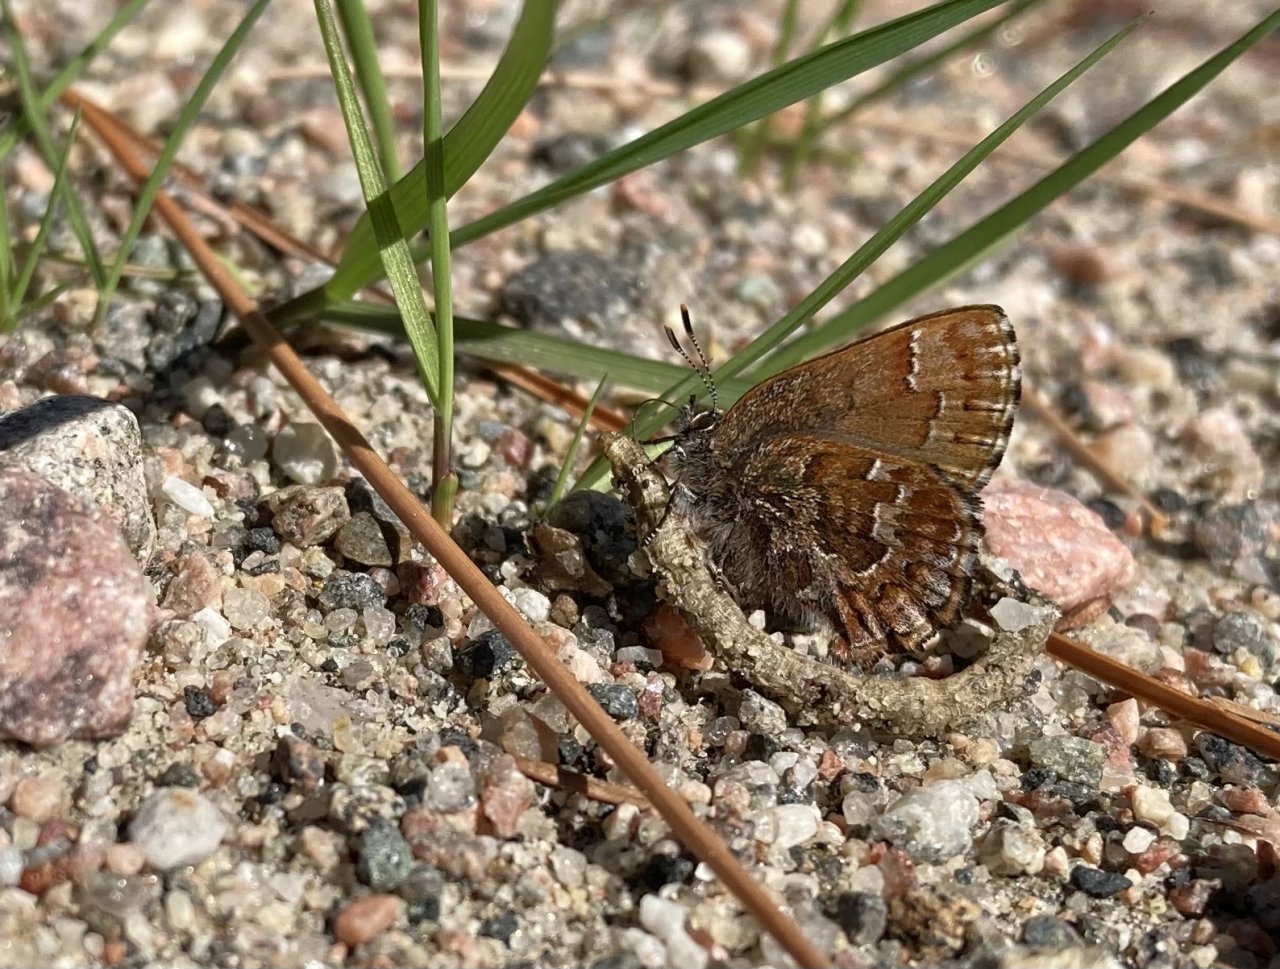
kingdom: Animalia
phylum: Arthropoda
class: Insecta
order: Lepidoptera
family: Lycaenidae
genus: Incisalia
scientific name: Incisalia niphon
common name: Eastern Pine Elfin
